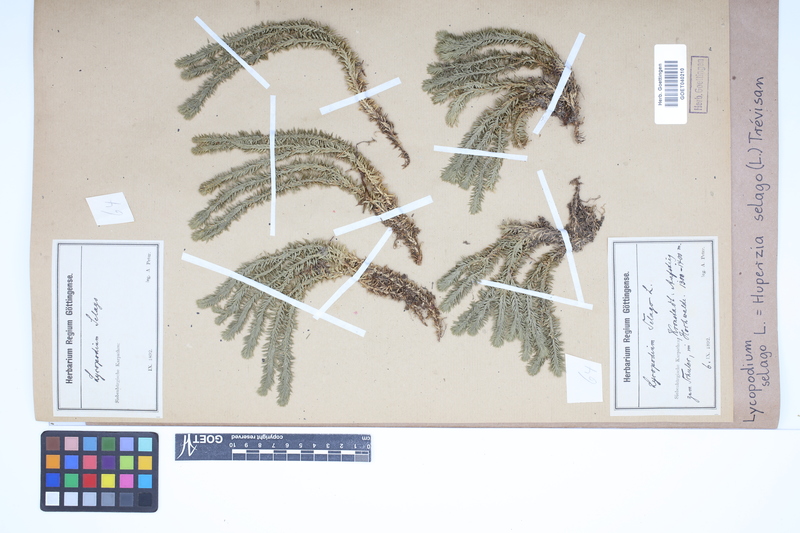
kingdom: Plantae
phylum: Tracheophyta
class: Lycopodiopsida
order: Lycopodiales
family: Lycopodiaceae
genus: Huperzia
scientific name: Huperzia selago
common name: Northern firmoss
